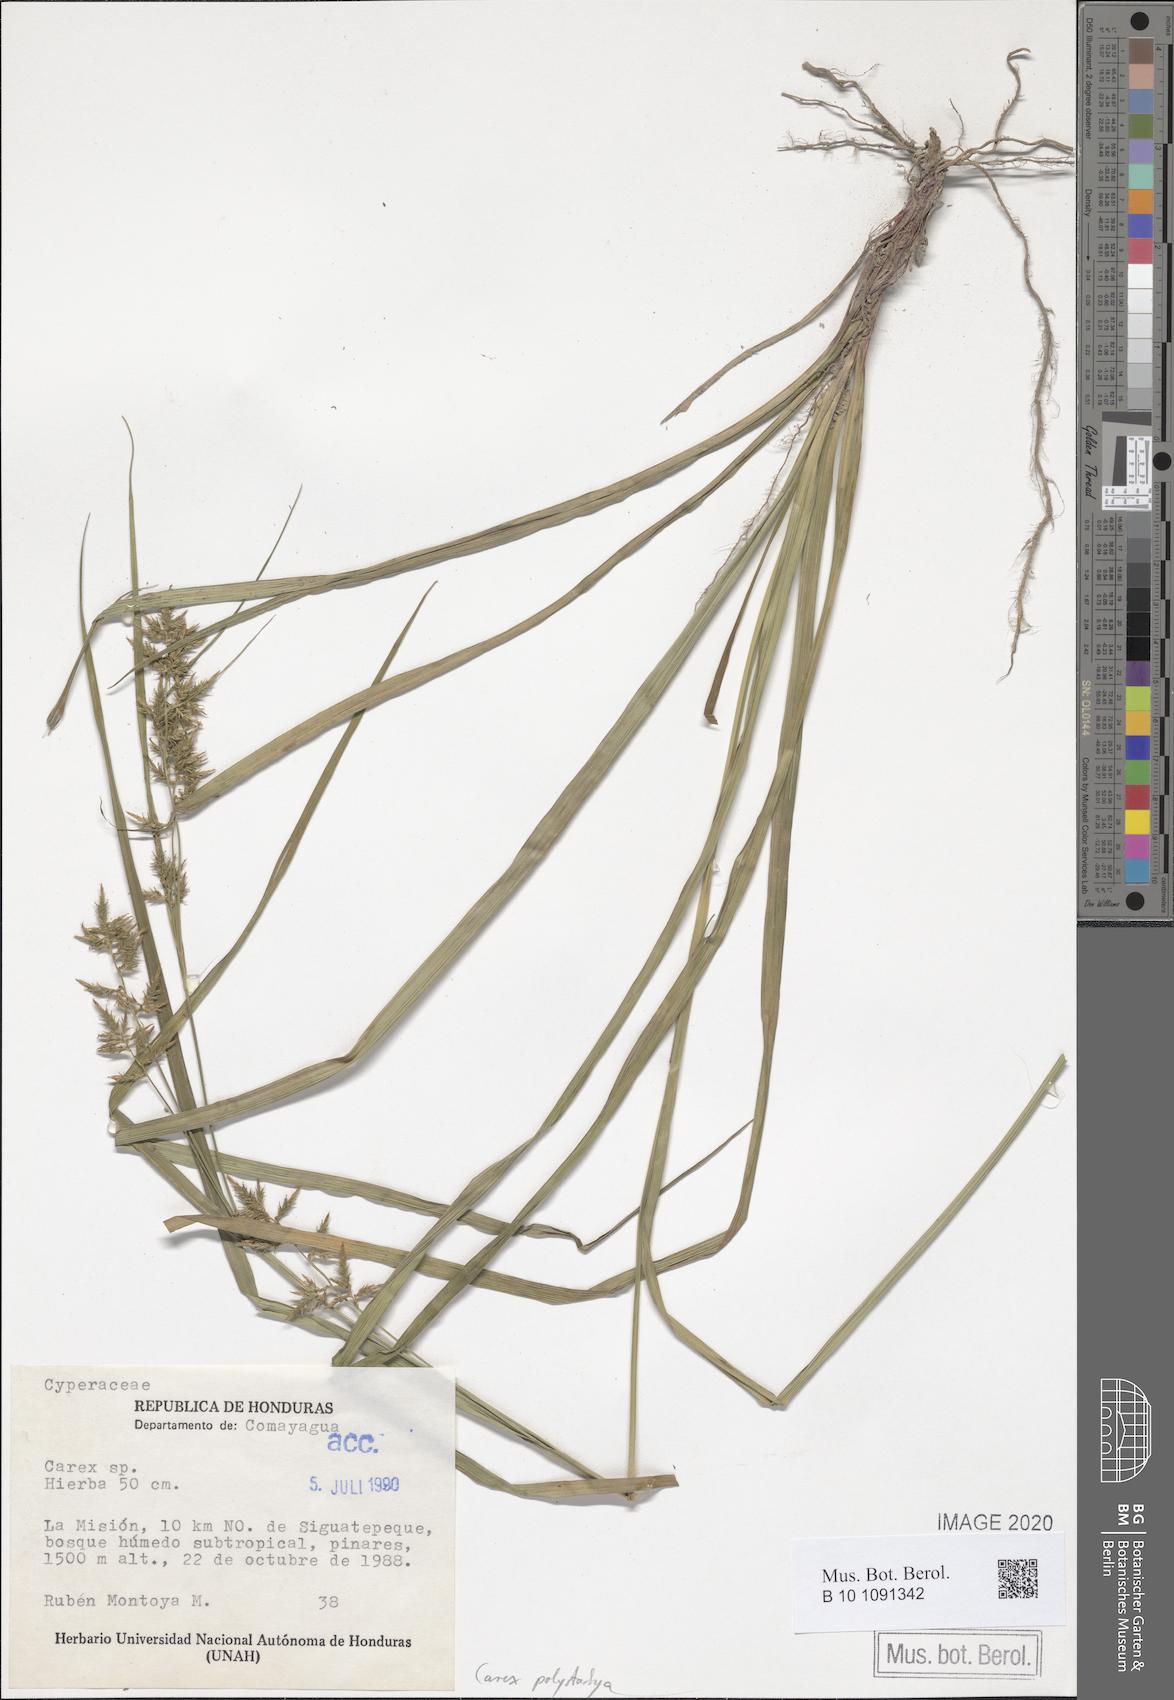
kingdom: Plantae
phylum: Tracheophyta
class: Liliopsida
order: Poales
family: Cyperaceae
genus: Carex
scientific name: Carex polystachya
